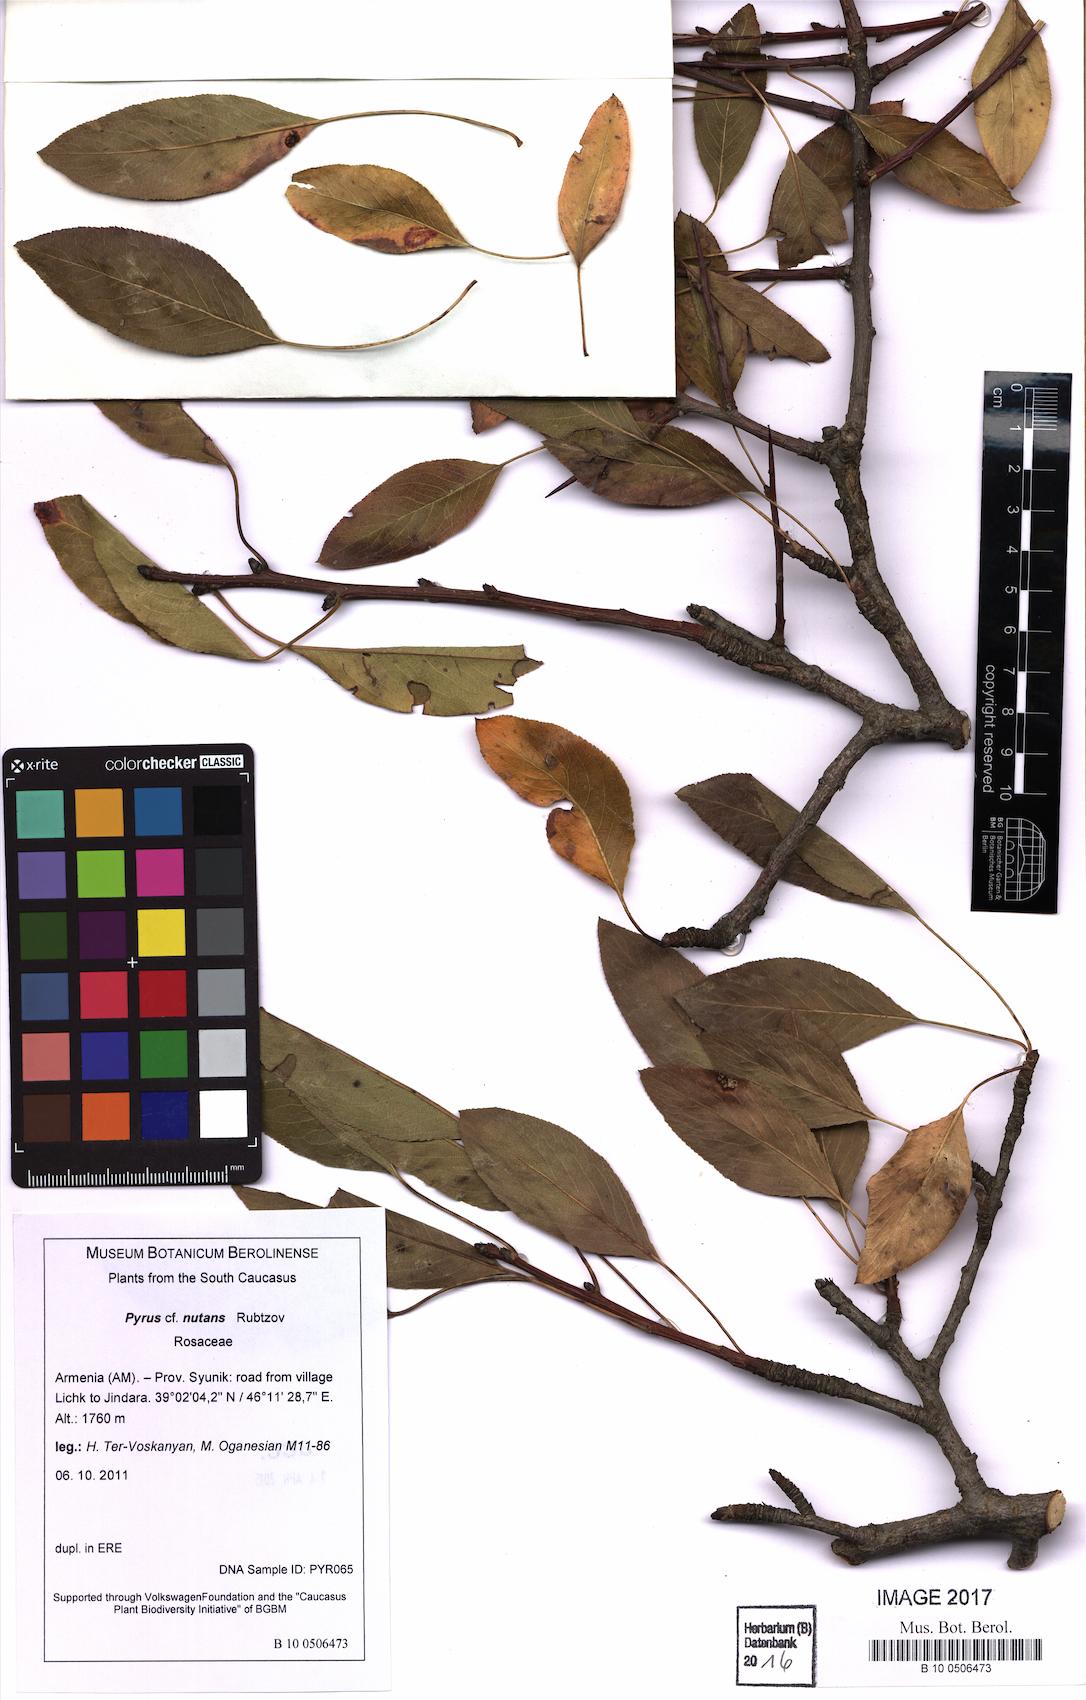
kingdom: Plantae
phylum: Tracheophyta
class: Magnoliopsida
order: Rosales
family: Rosaceae
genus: Pyrus
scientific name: Pyrus nutans
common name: Drooping pear
